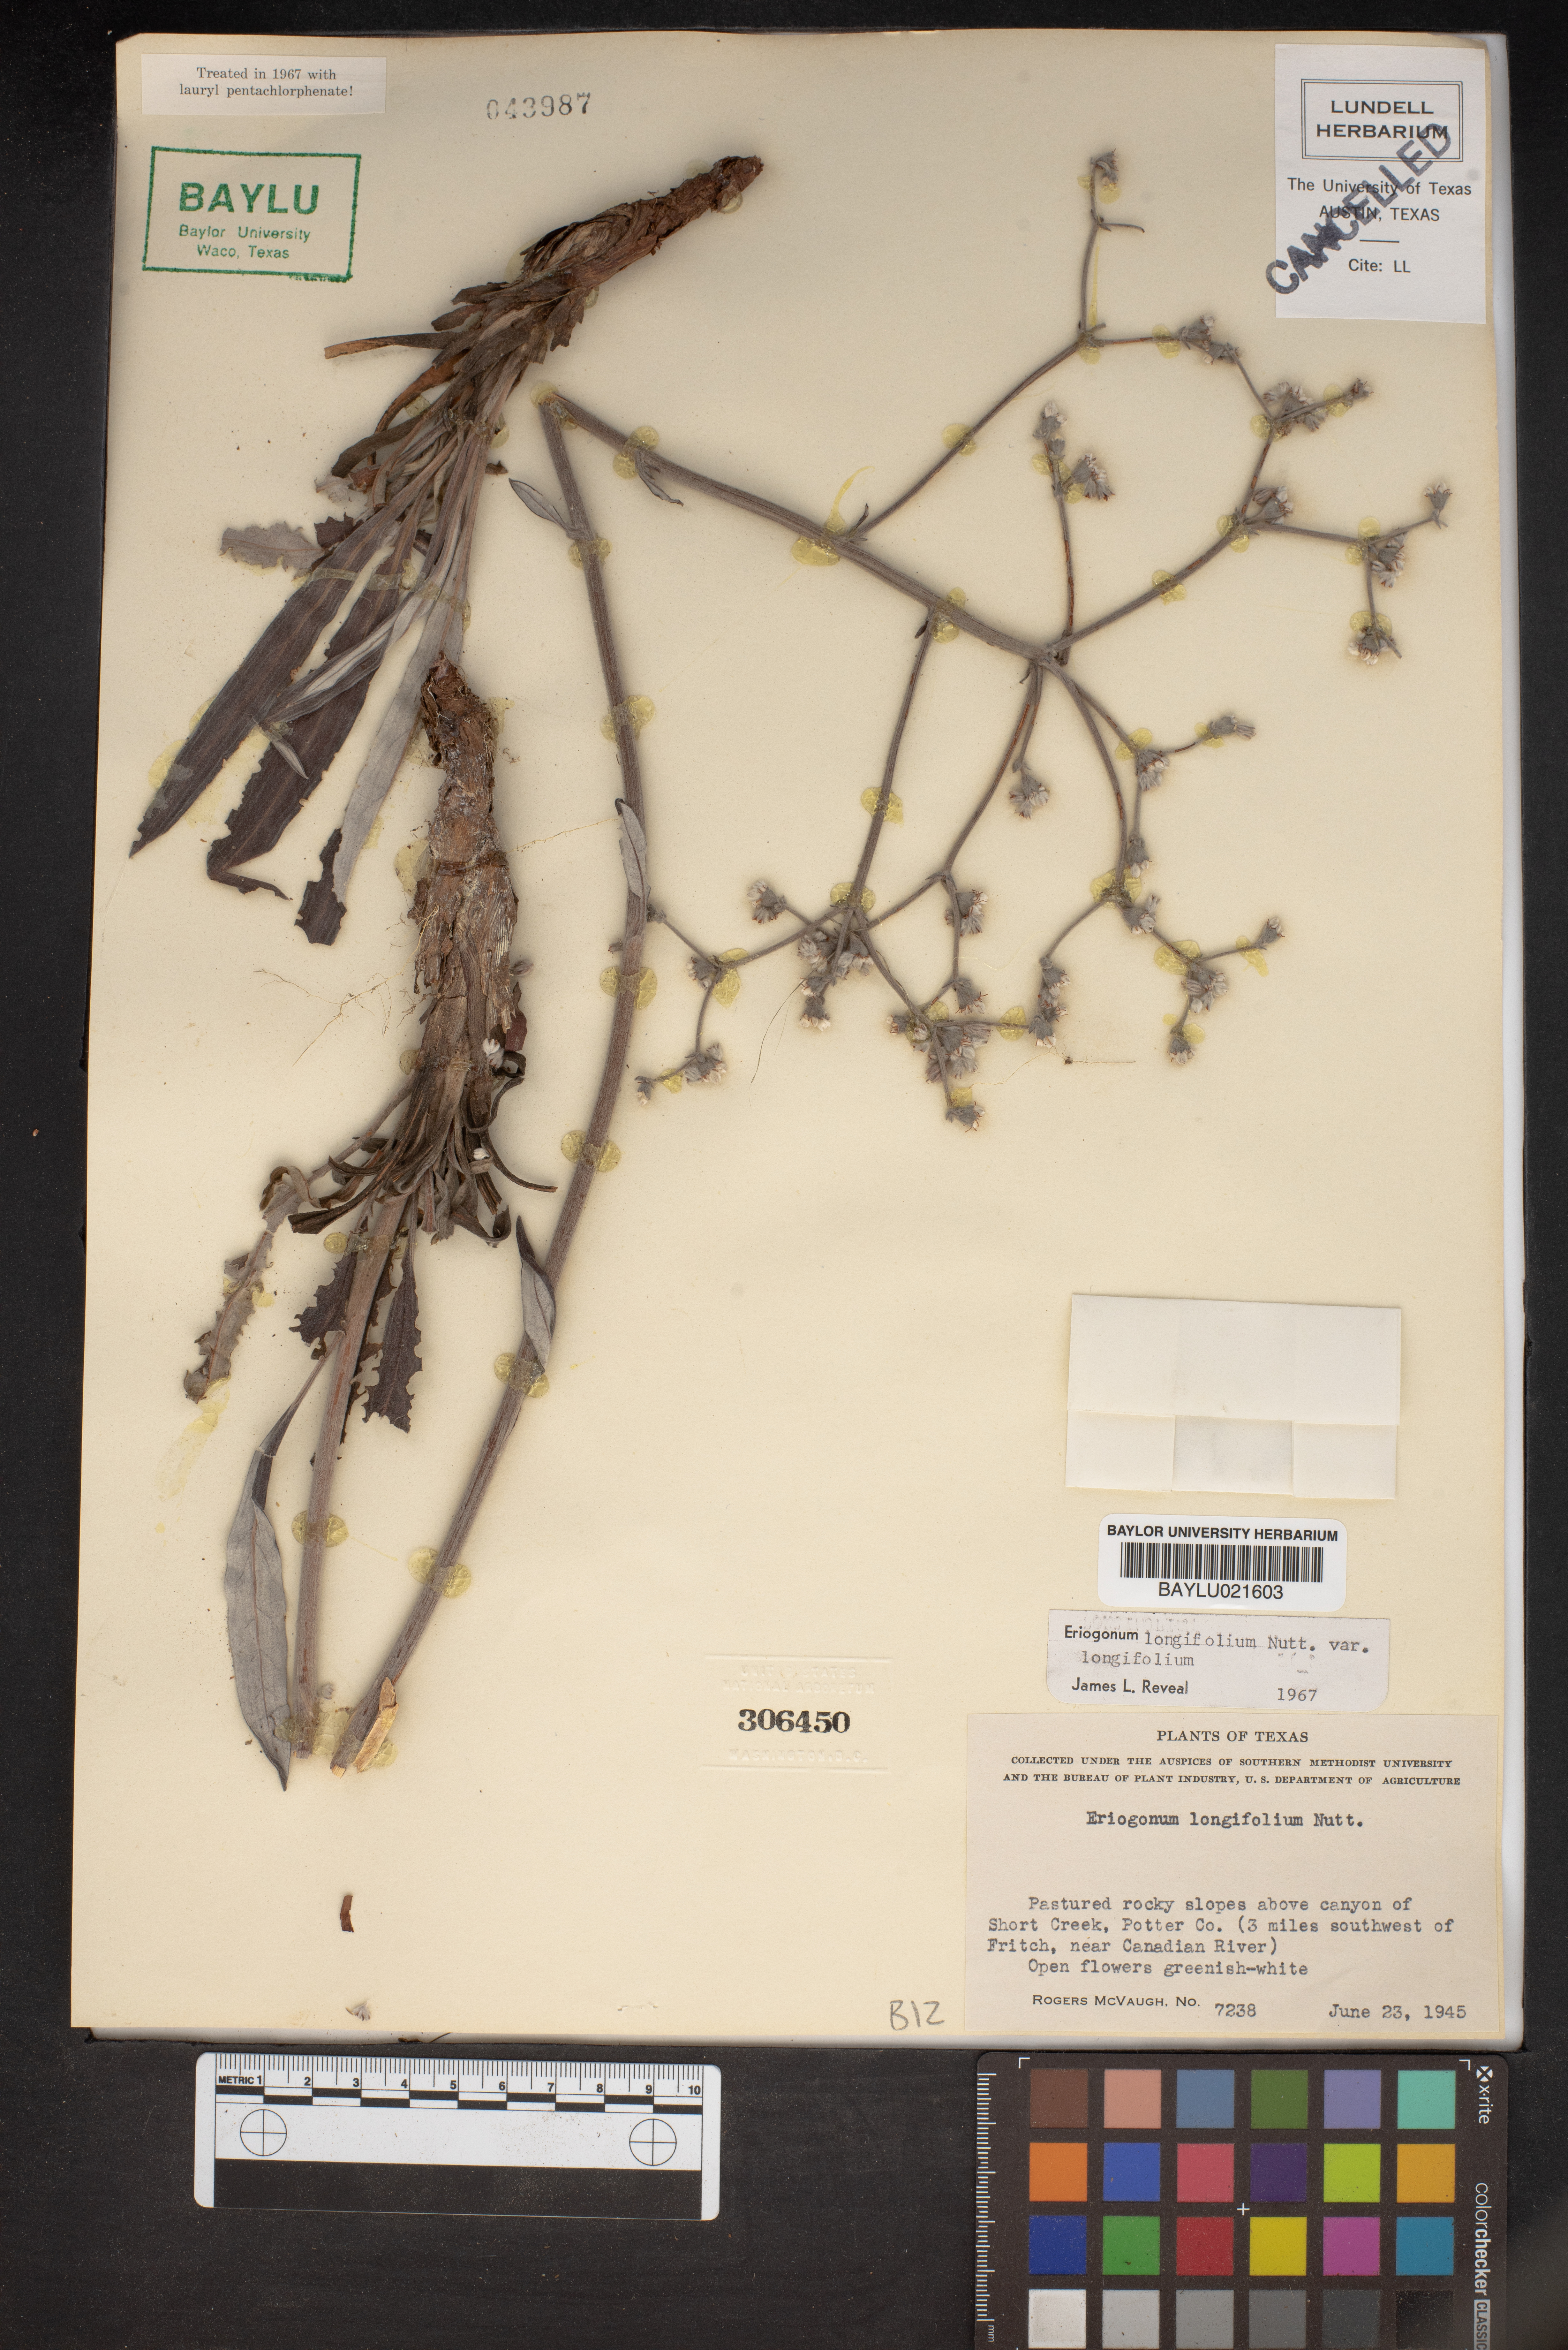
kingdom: Plantae
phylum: Tracheophyta
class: Magnoliopsida
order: Caryophyllales
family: Polygonaceae
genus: Eriogonum
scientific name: Eriogonum longifolium
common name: Longleaf wild buckwheat
